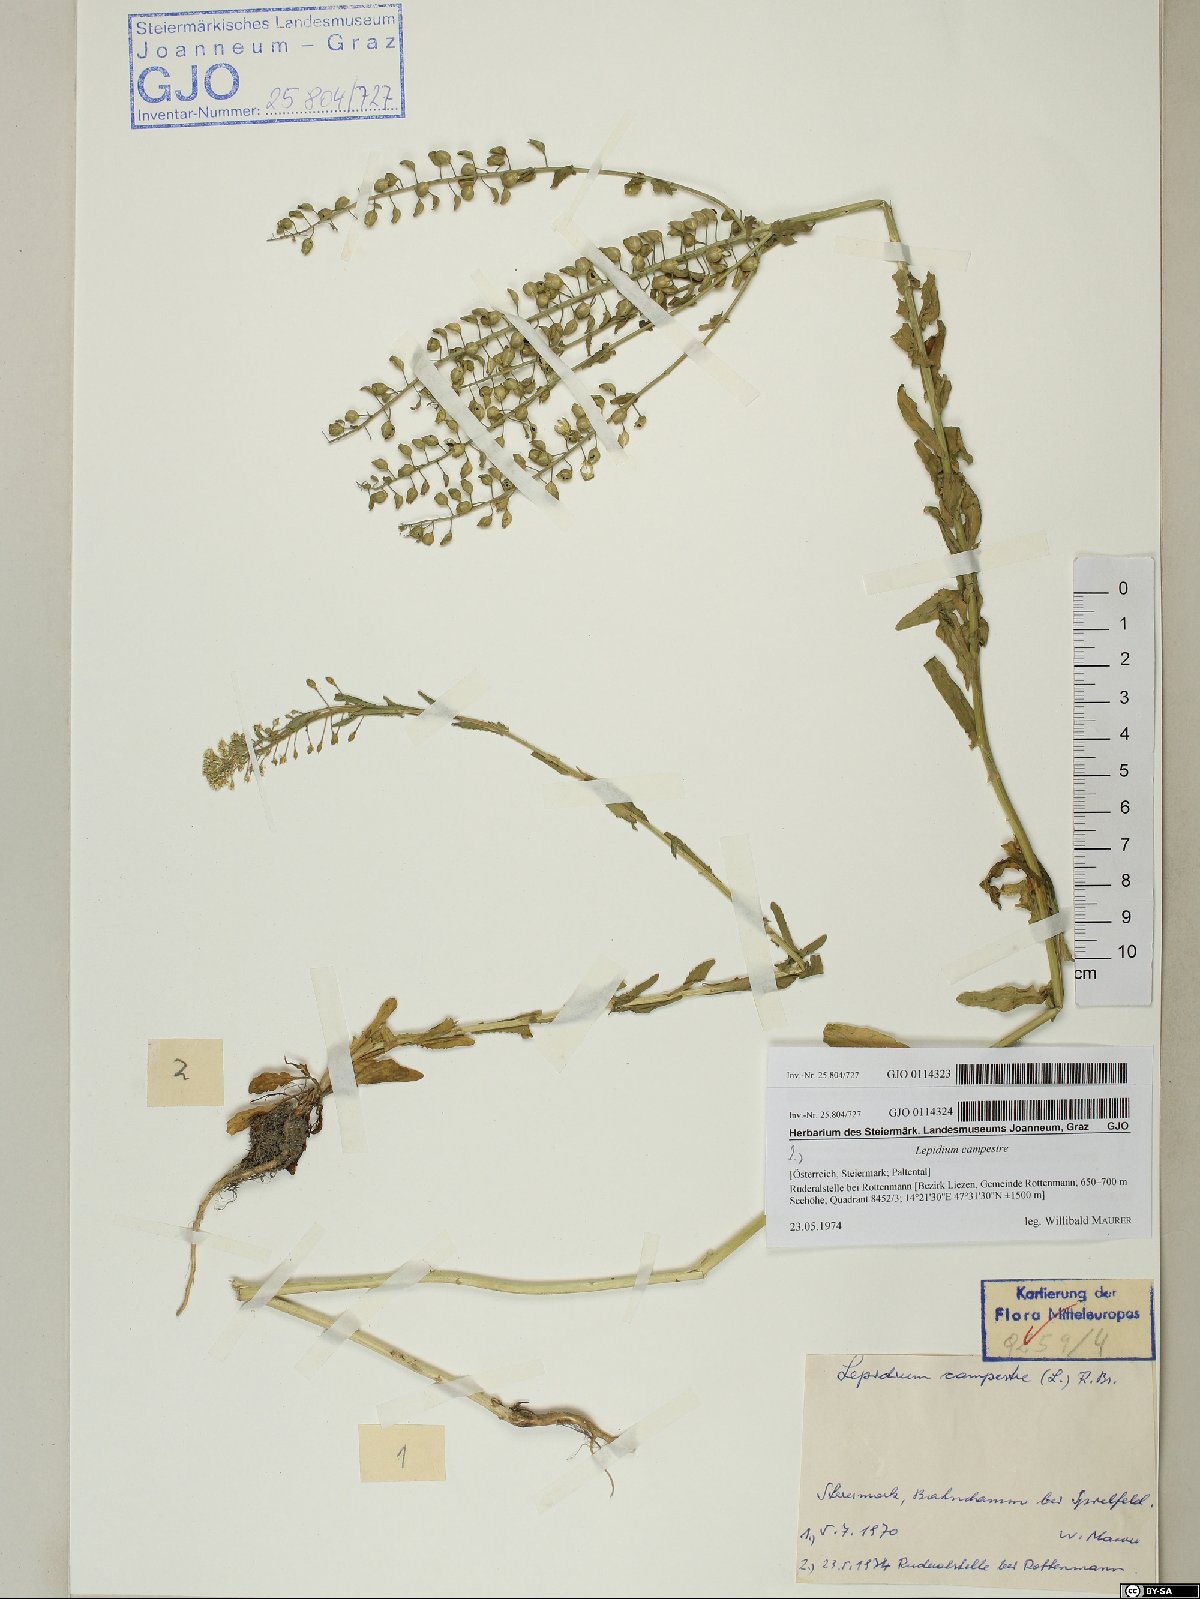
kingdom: Plantae
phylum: Tracheophyta
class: Magnoliopsida
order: Brassicales
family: Brassicaceae
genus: Lepidium
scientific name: Lepidium campestre
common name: Field pepperwort
